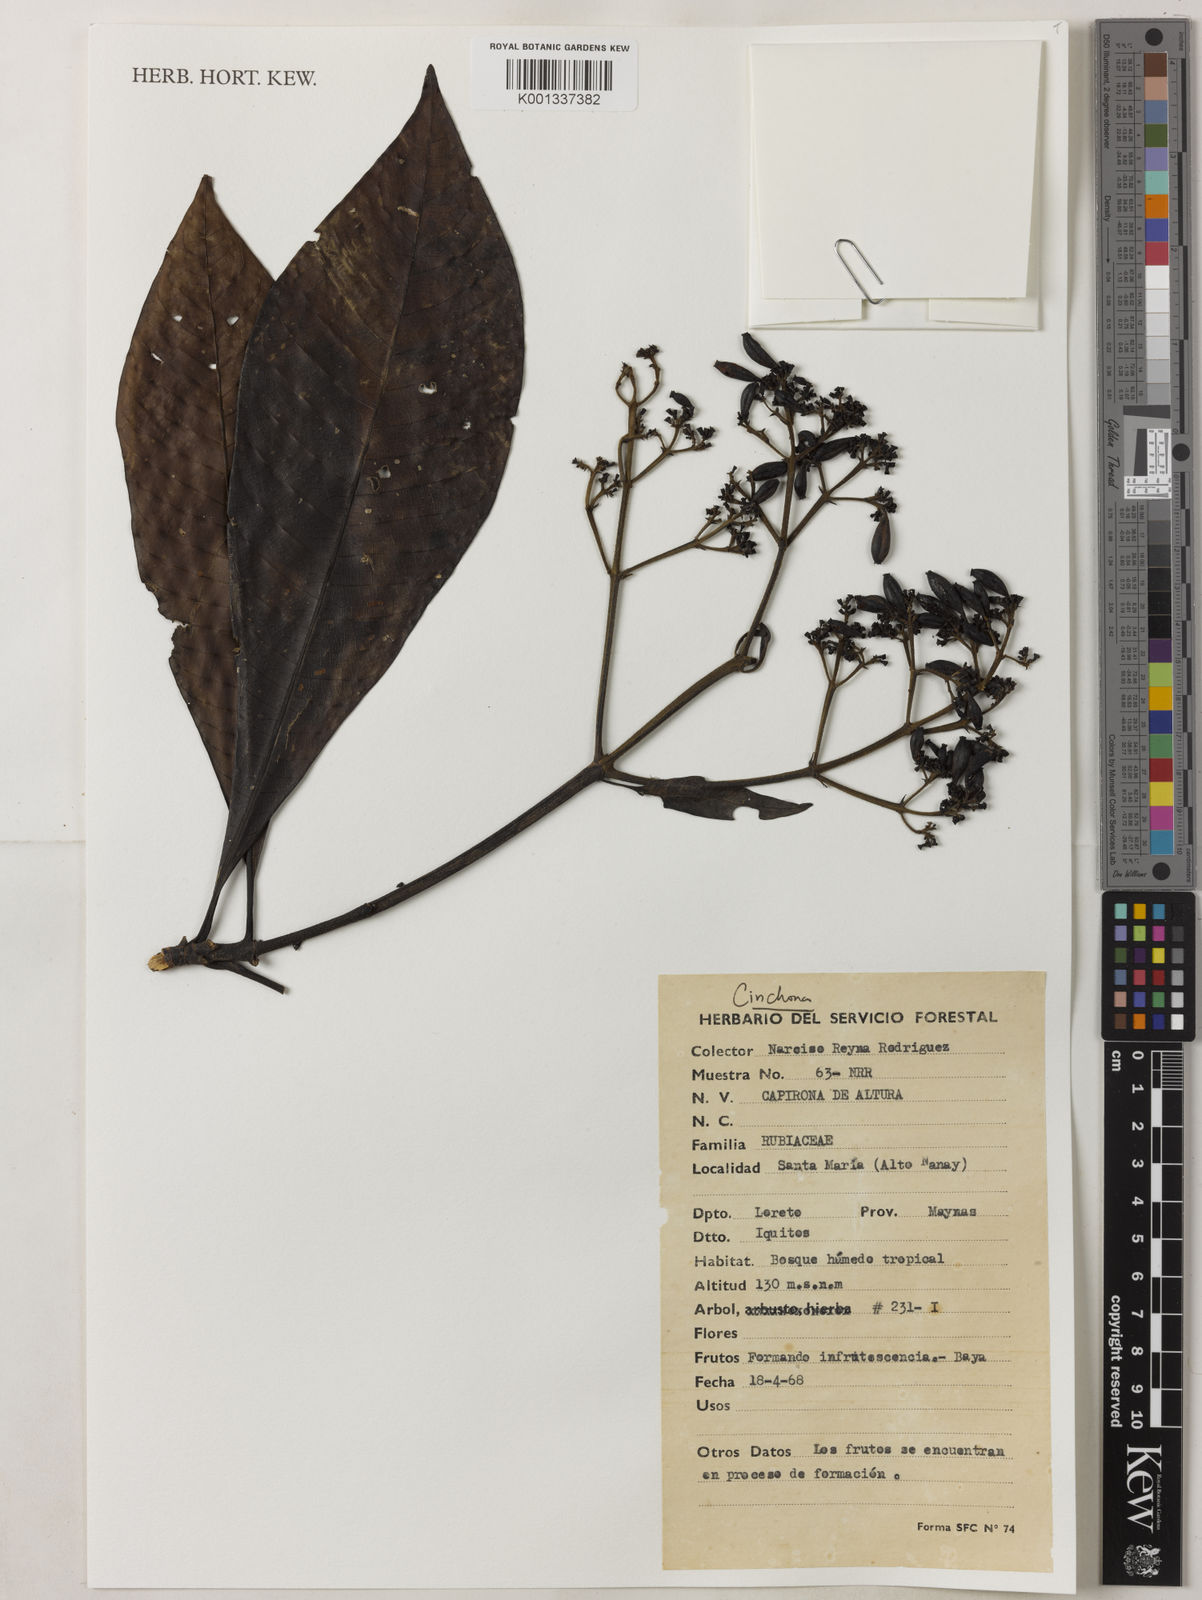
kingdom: Plantae
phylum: Tracheophyta
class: Magnoliopsida
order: Gentianales
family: Rubiaceae
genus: Cinchona
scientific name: Cinchona
